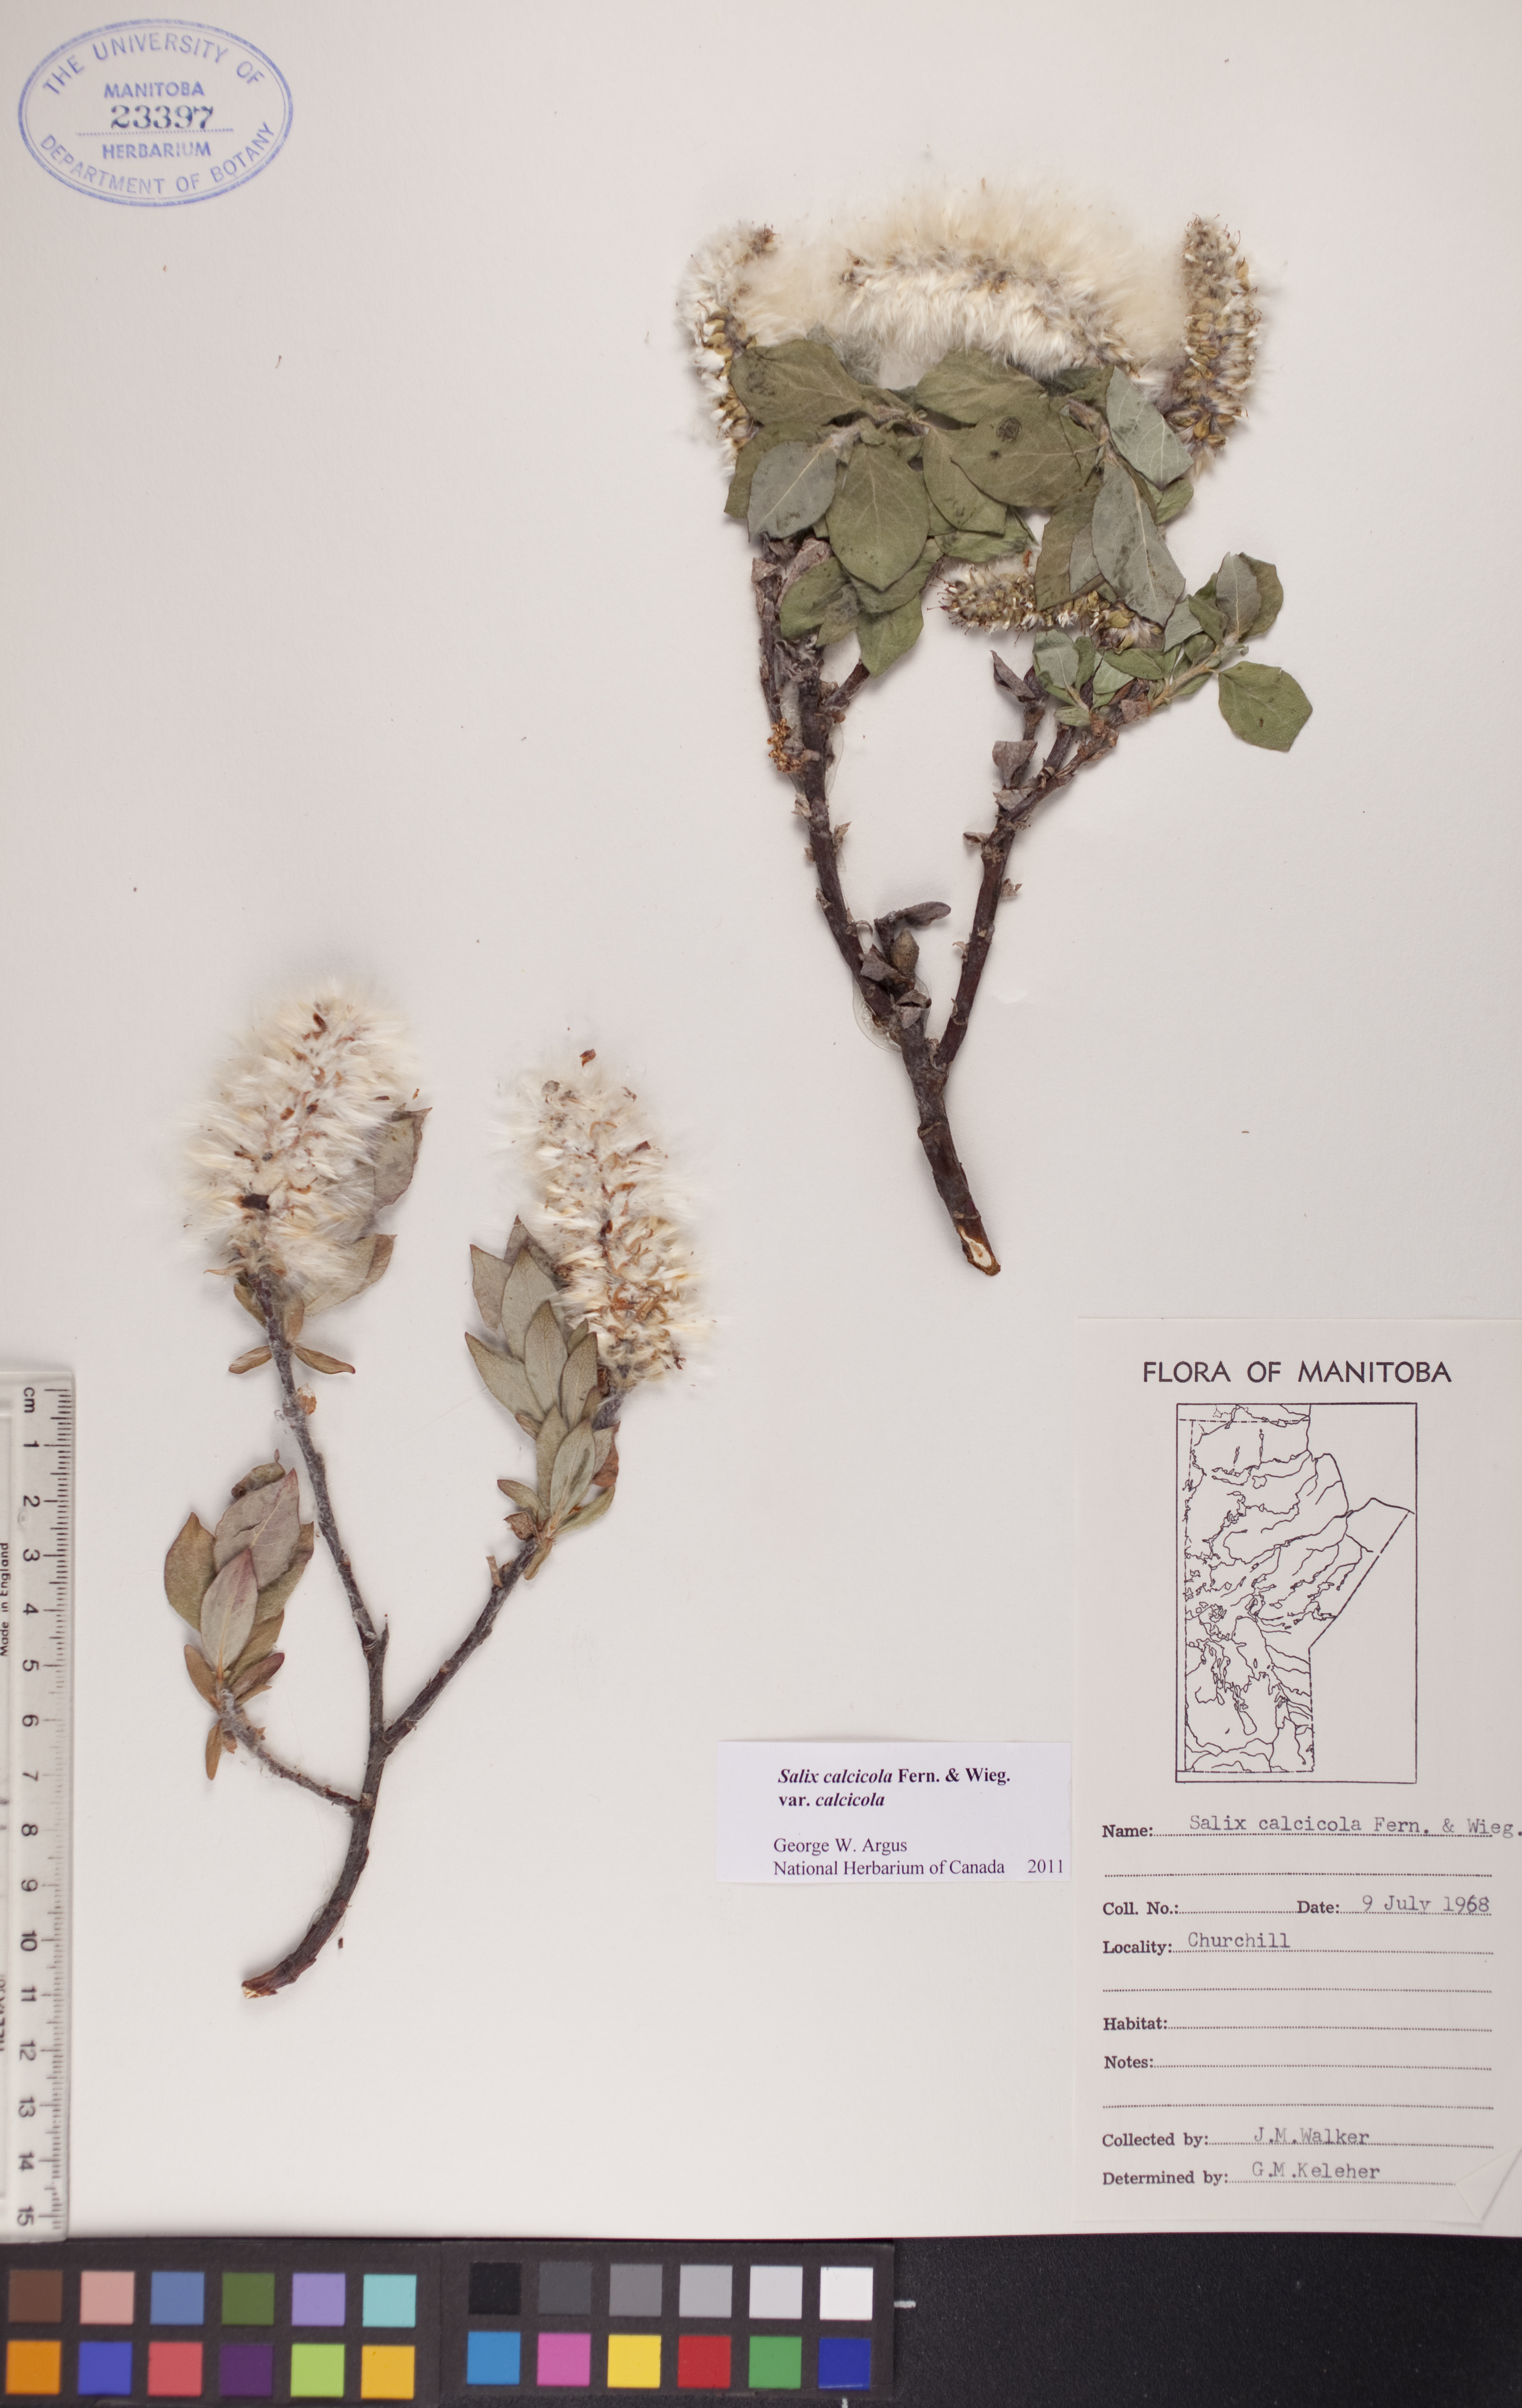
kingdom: Plantae
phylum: Tracheophyta
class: Magnoliopsida
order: Malpighiales
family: Salicaceae
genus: Salix
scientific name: Salix calcicola
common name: Calcareous willow
